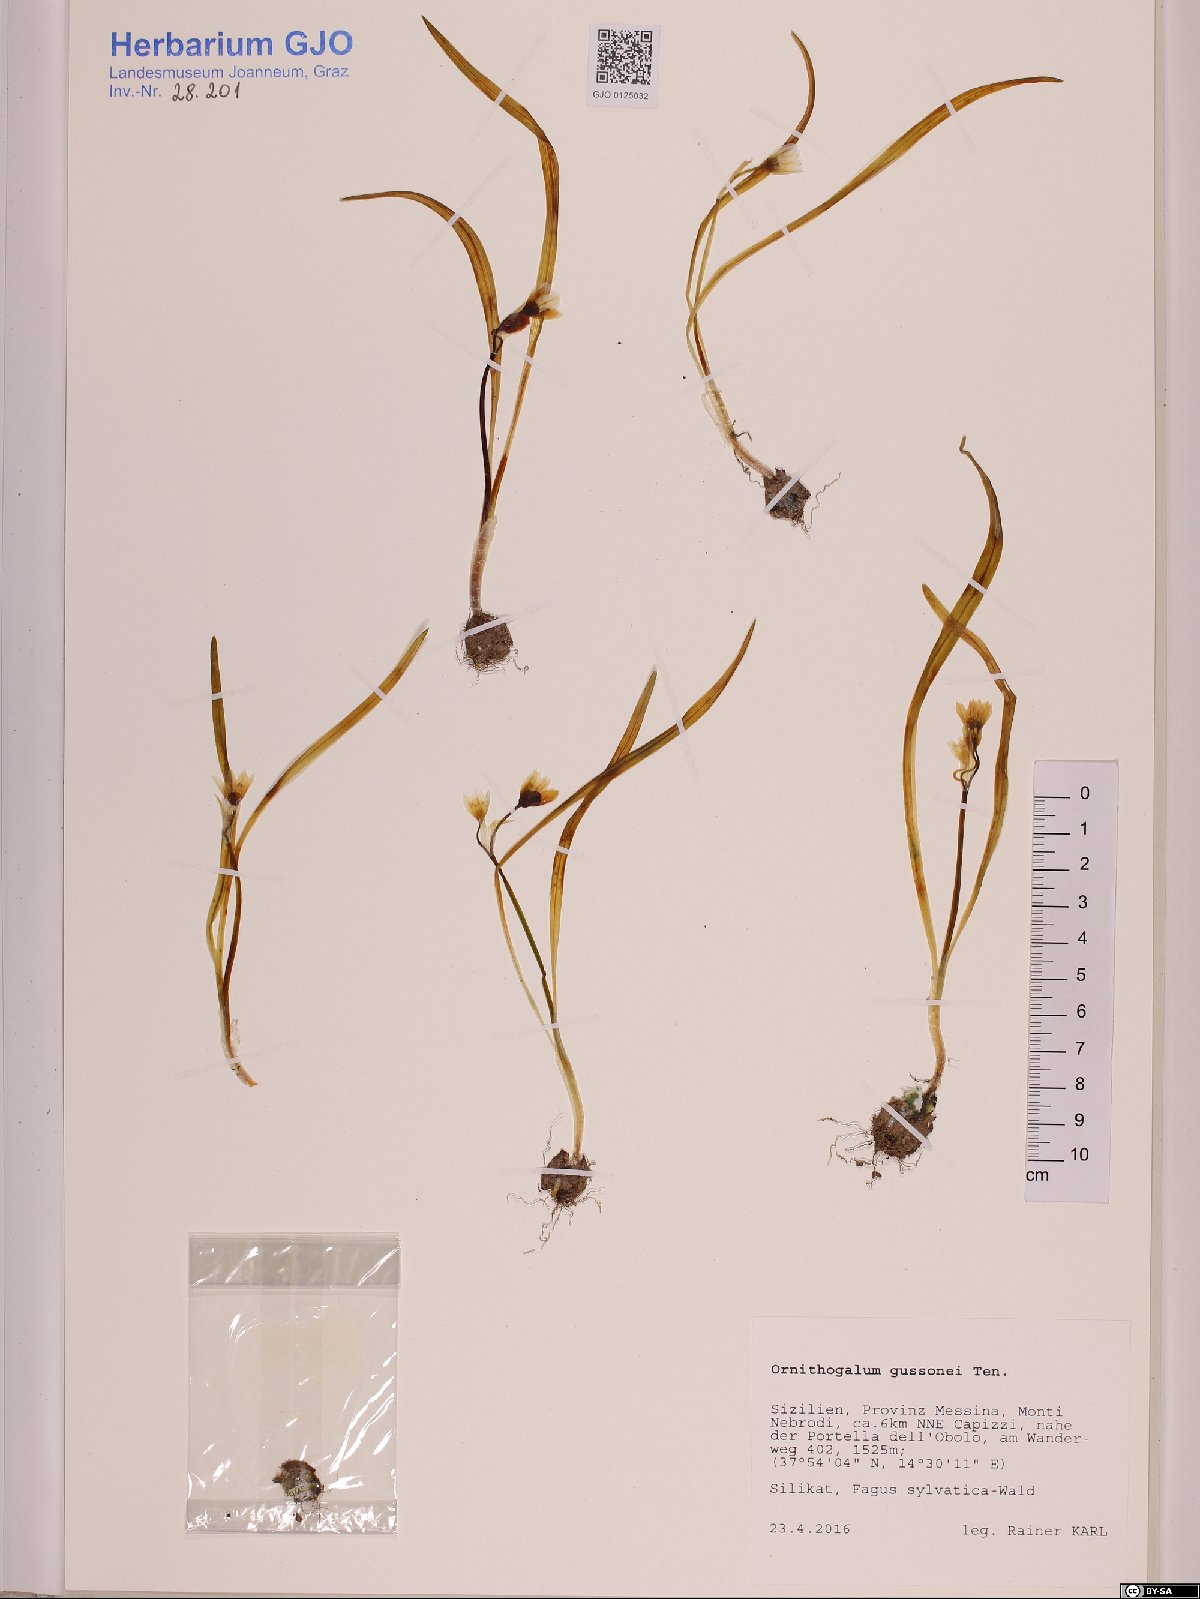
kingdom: Plantae
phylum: Tracheophyta
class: Liliopsida
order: Asparagales
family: Asparagaceae
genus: Ornithogalum
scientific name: Ornithogalum gussonei
